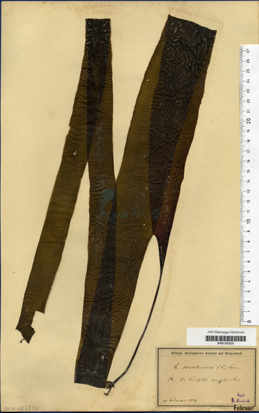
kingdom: Chromista
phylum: Ochrophyta
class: Phaeophyceae
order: Laminariales
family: Laminariaceae
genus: Saccharina
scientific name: Saccharina latissima
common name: Poor man's weather glass
